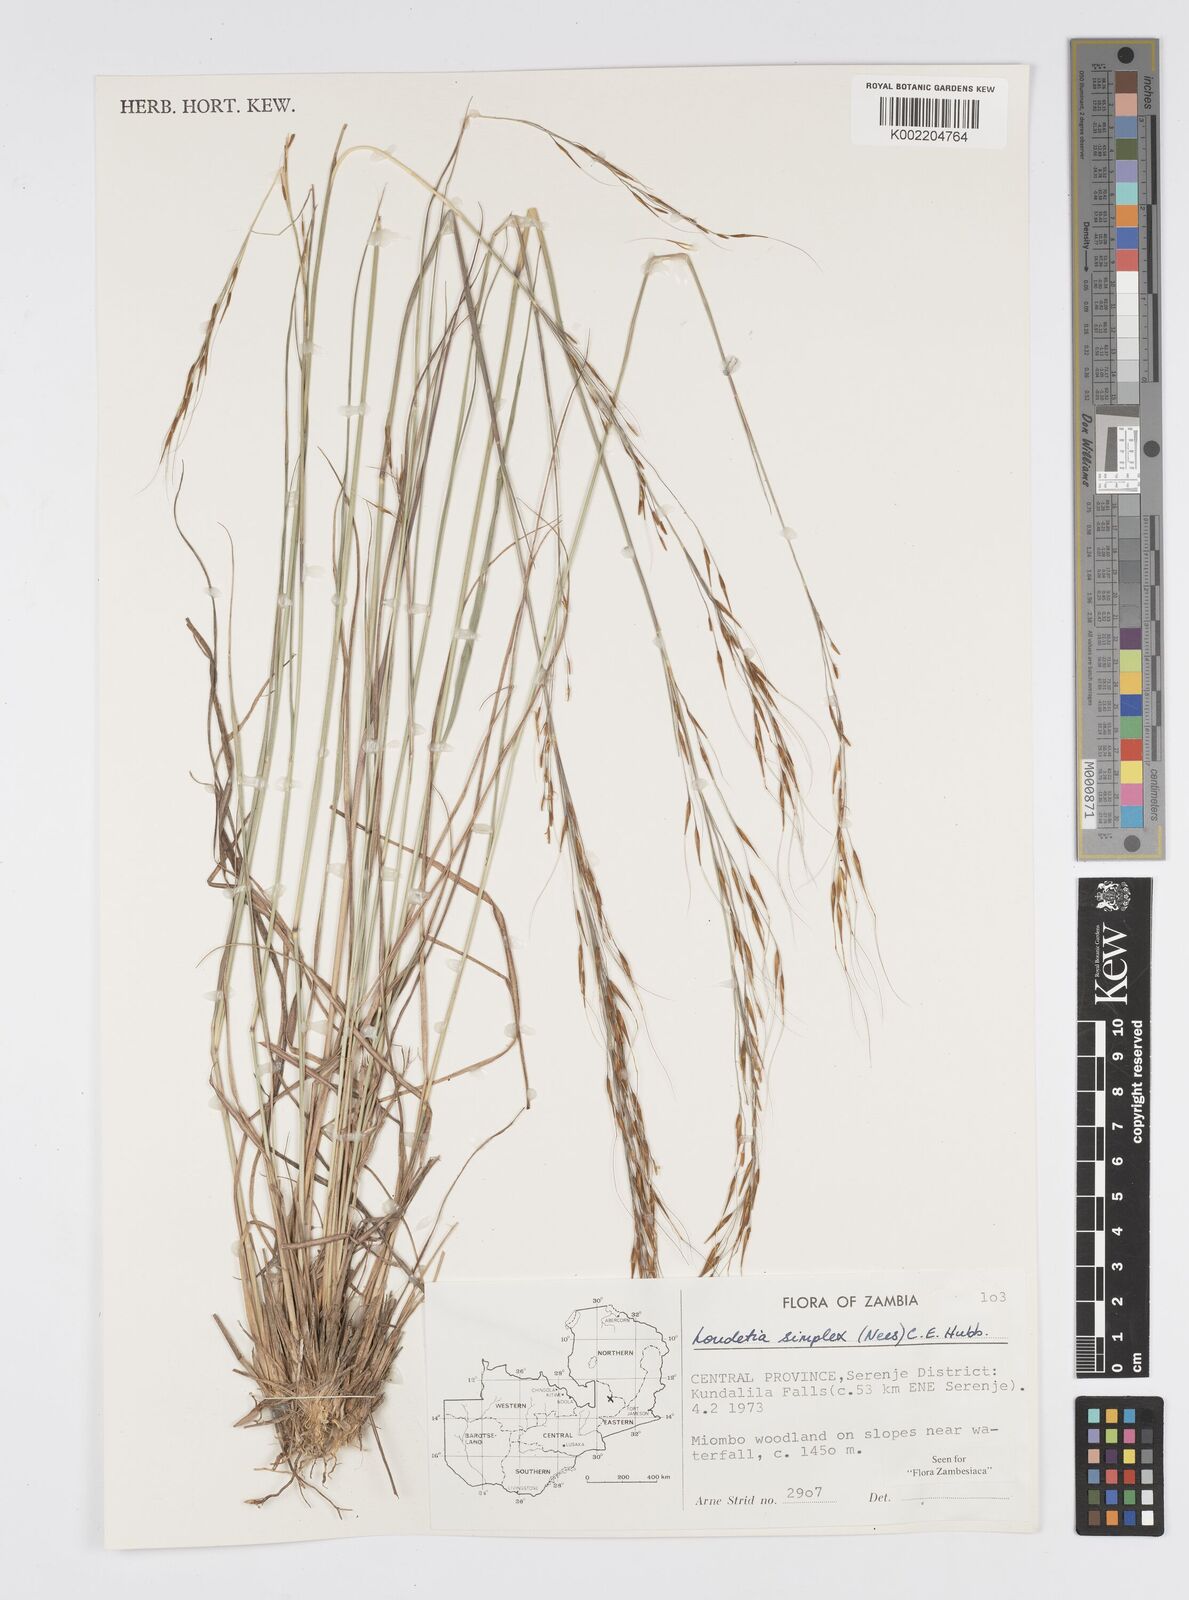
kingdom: Plantae
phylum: Tracheophyta
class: Liliopsida
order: Poales
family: Poaceae
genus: Loudetia
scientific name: Loudetia simplex
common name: Common russet grass
